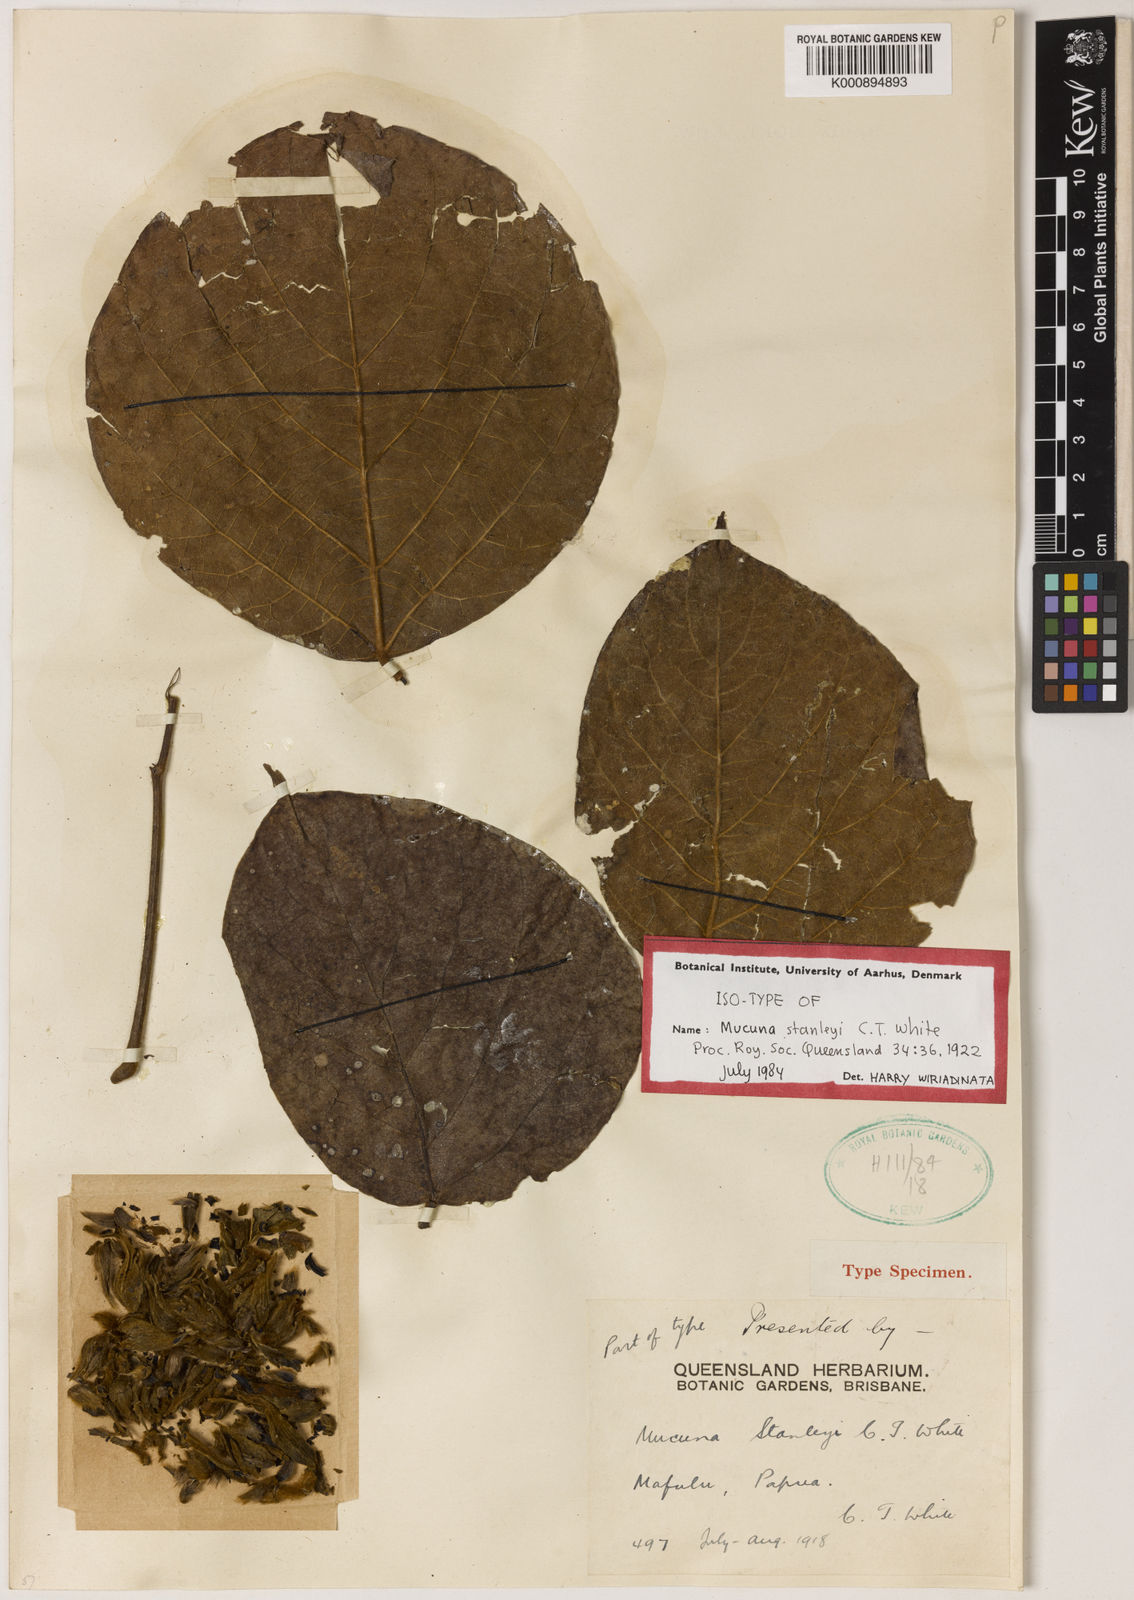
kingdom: Plantae
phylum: Tracheophyta
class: Magnoliopsida
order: Fabales
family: Fabaceae
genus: Mucuna
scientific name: Mucuna stanleyi
